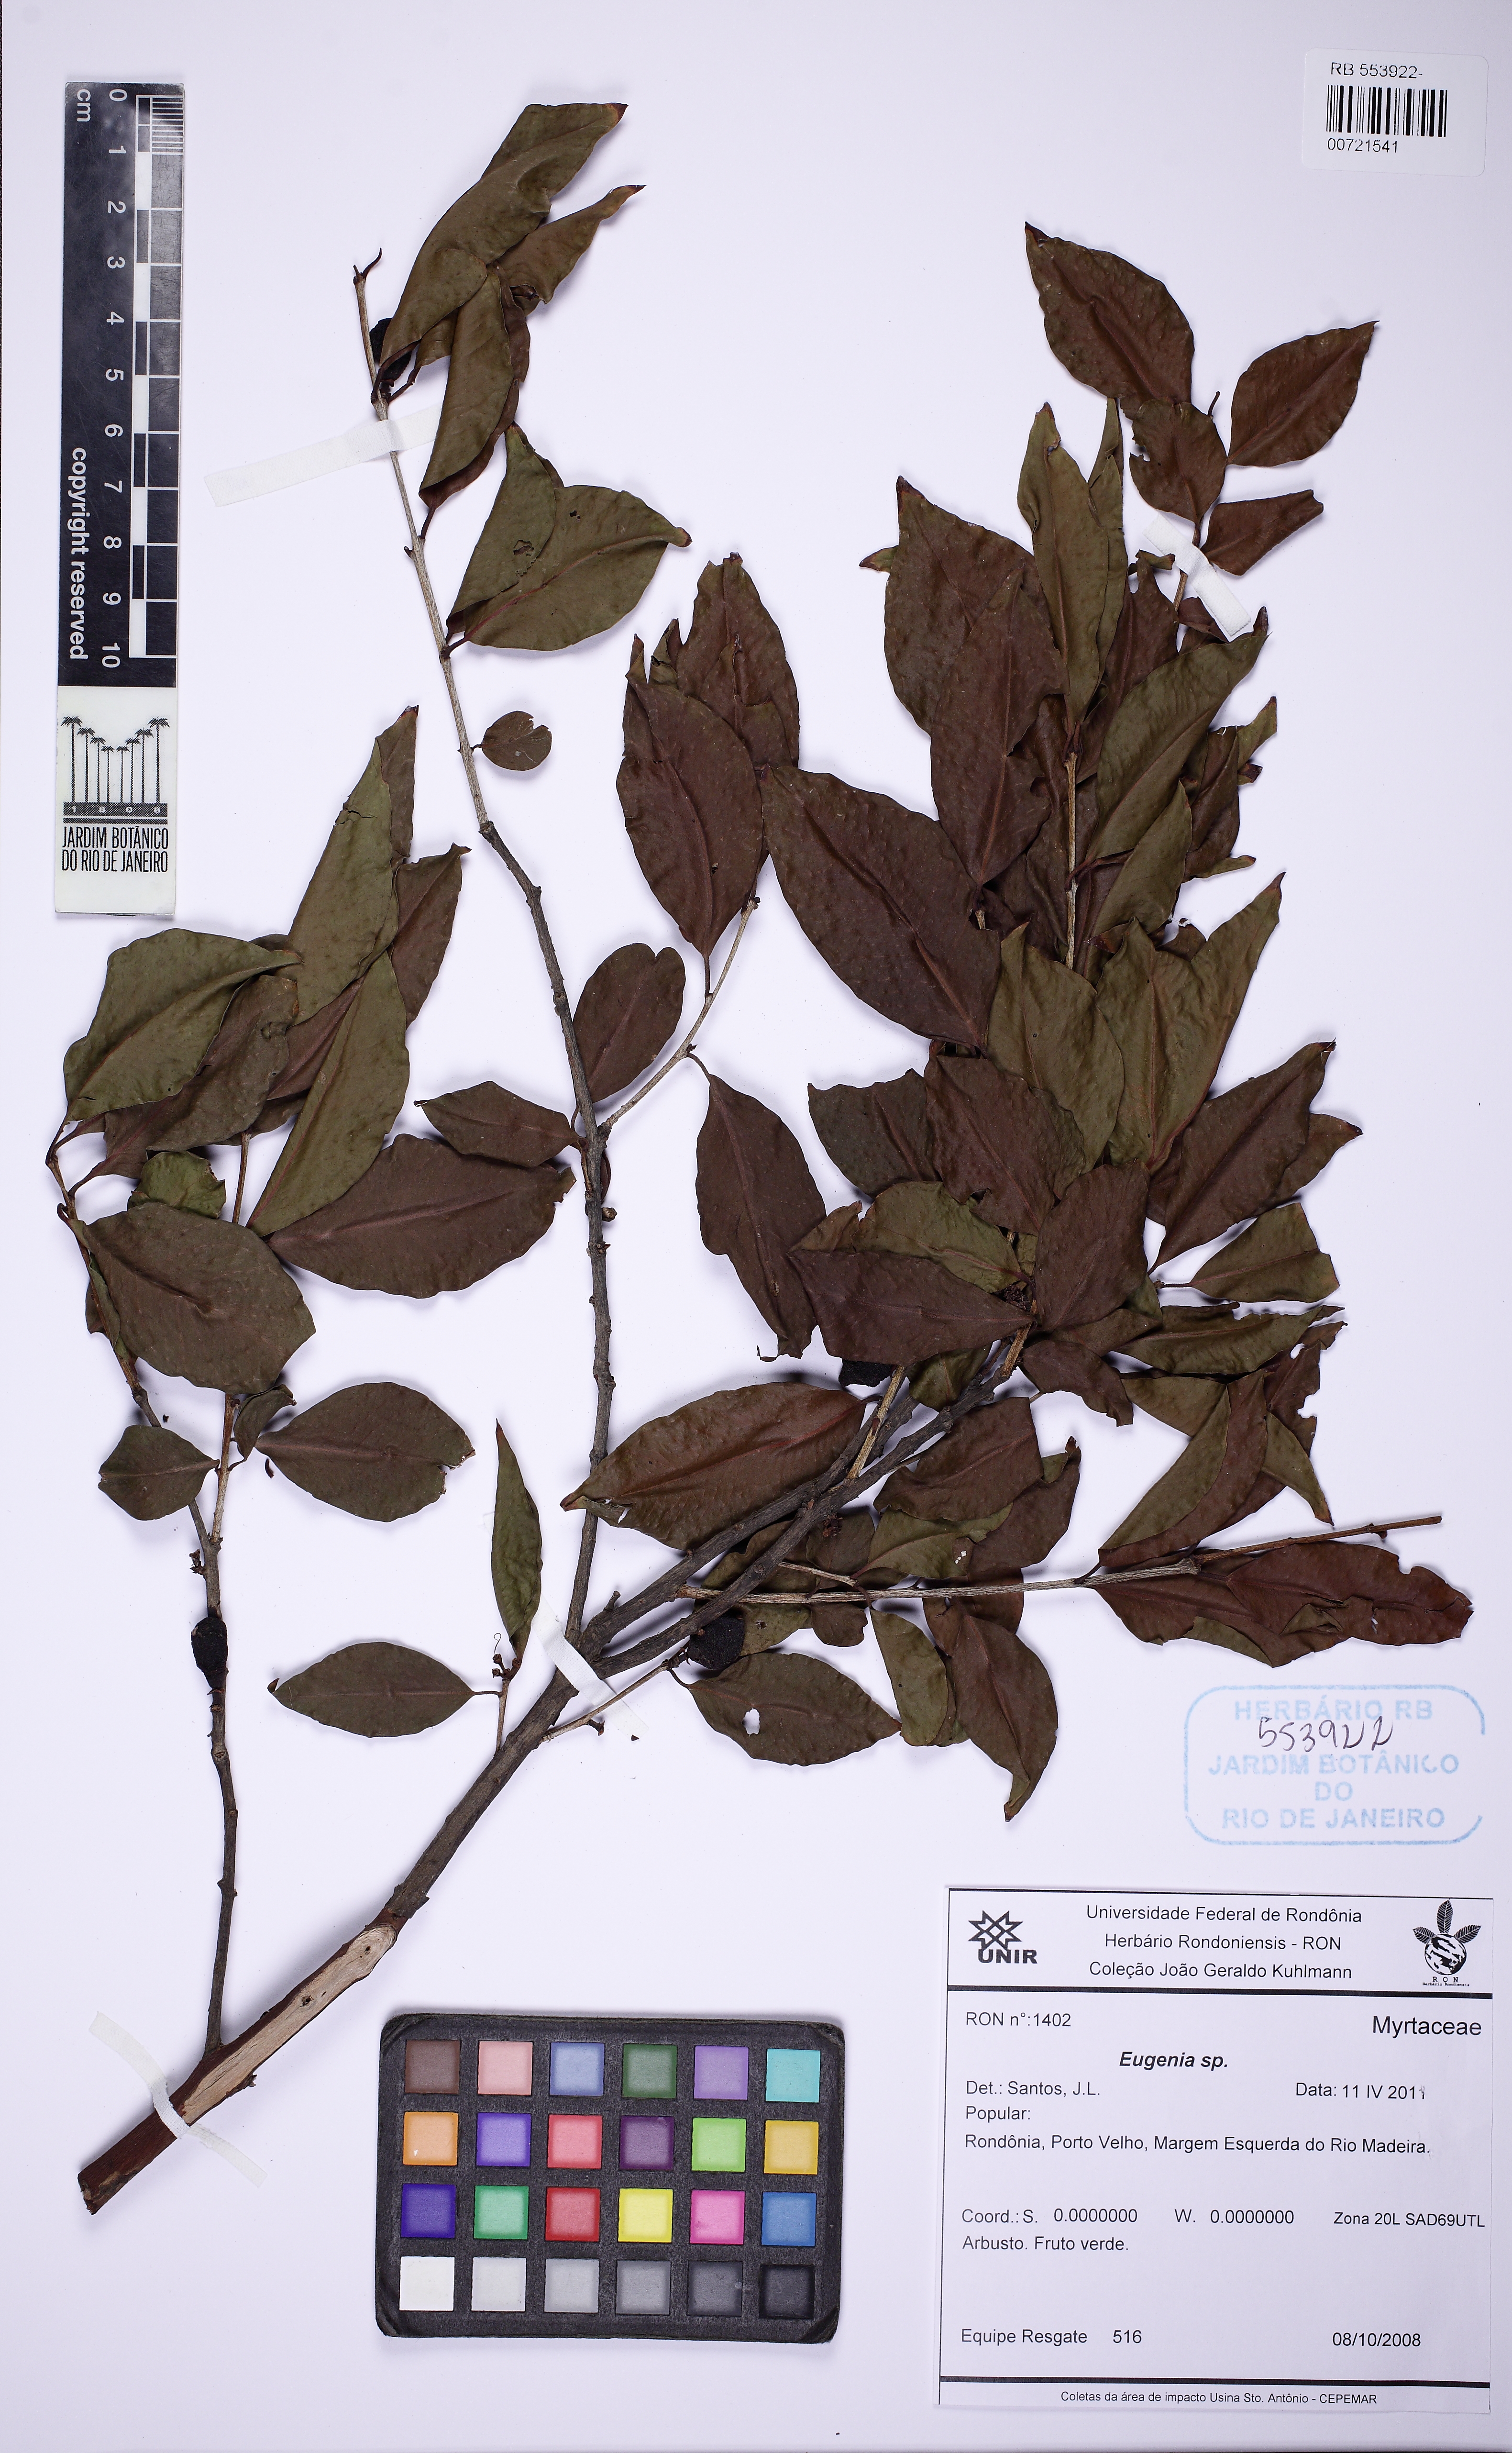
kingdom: Plantae
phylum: Tracheophyta
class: Magnoliopsida
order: Myrtales
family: Myrtaceae
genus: Myrciaria
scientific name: Myrciaria dubia
